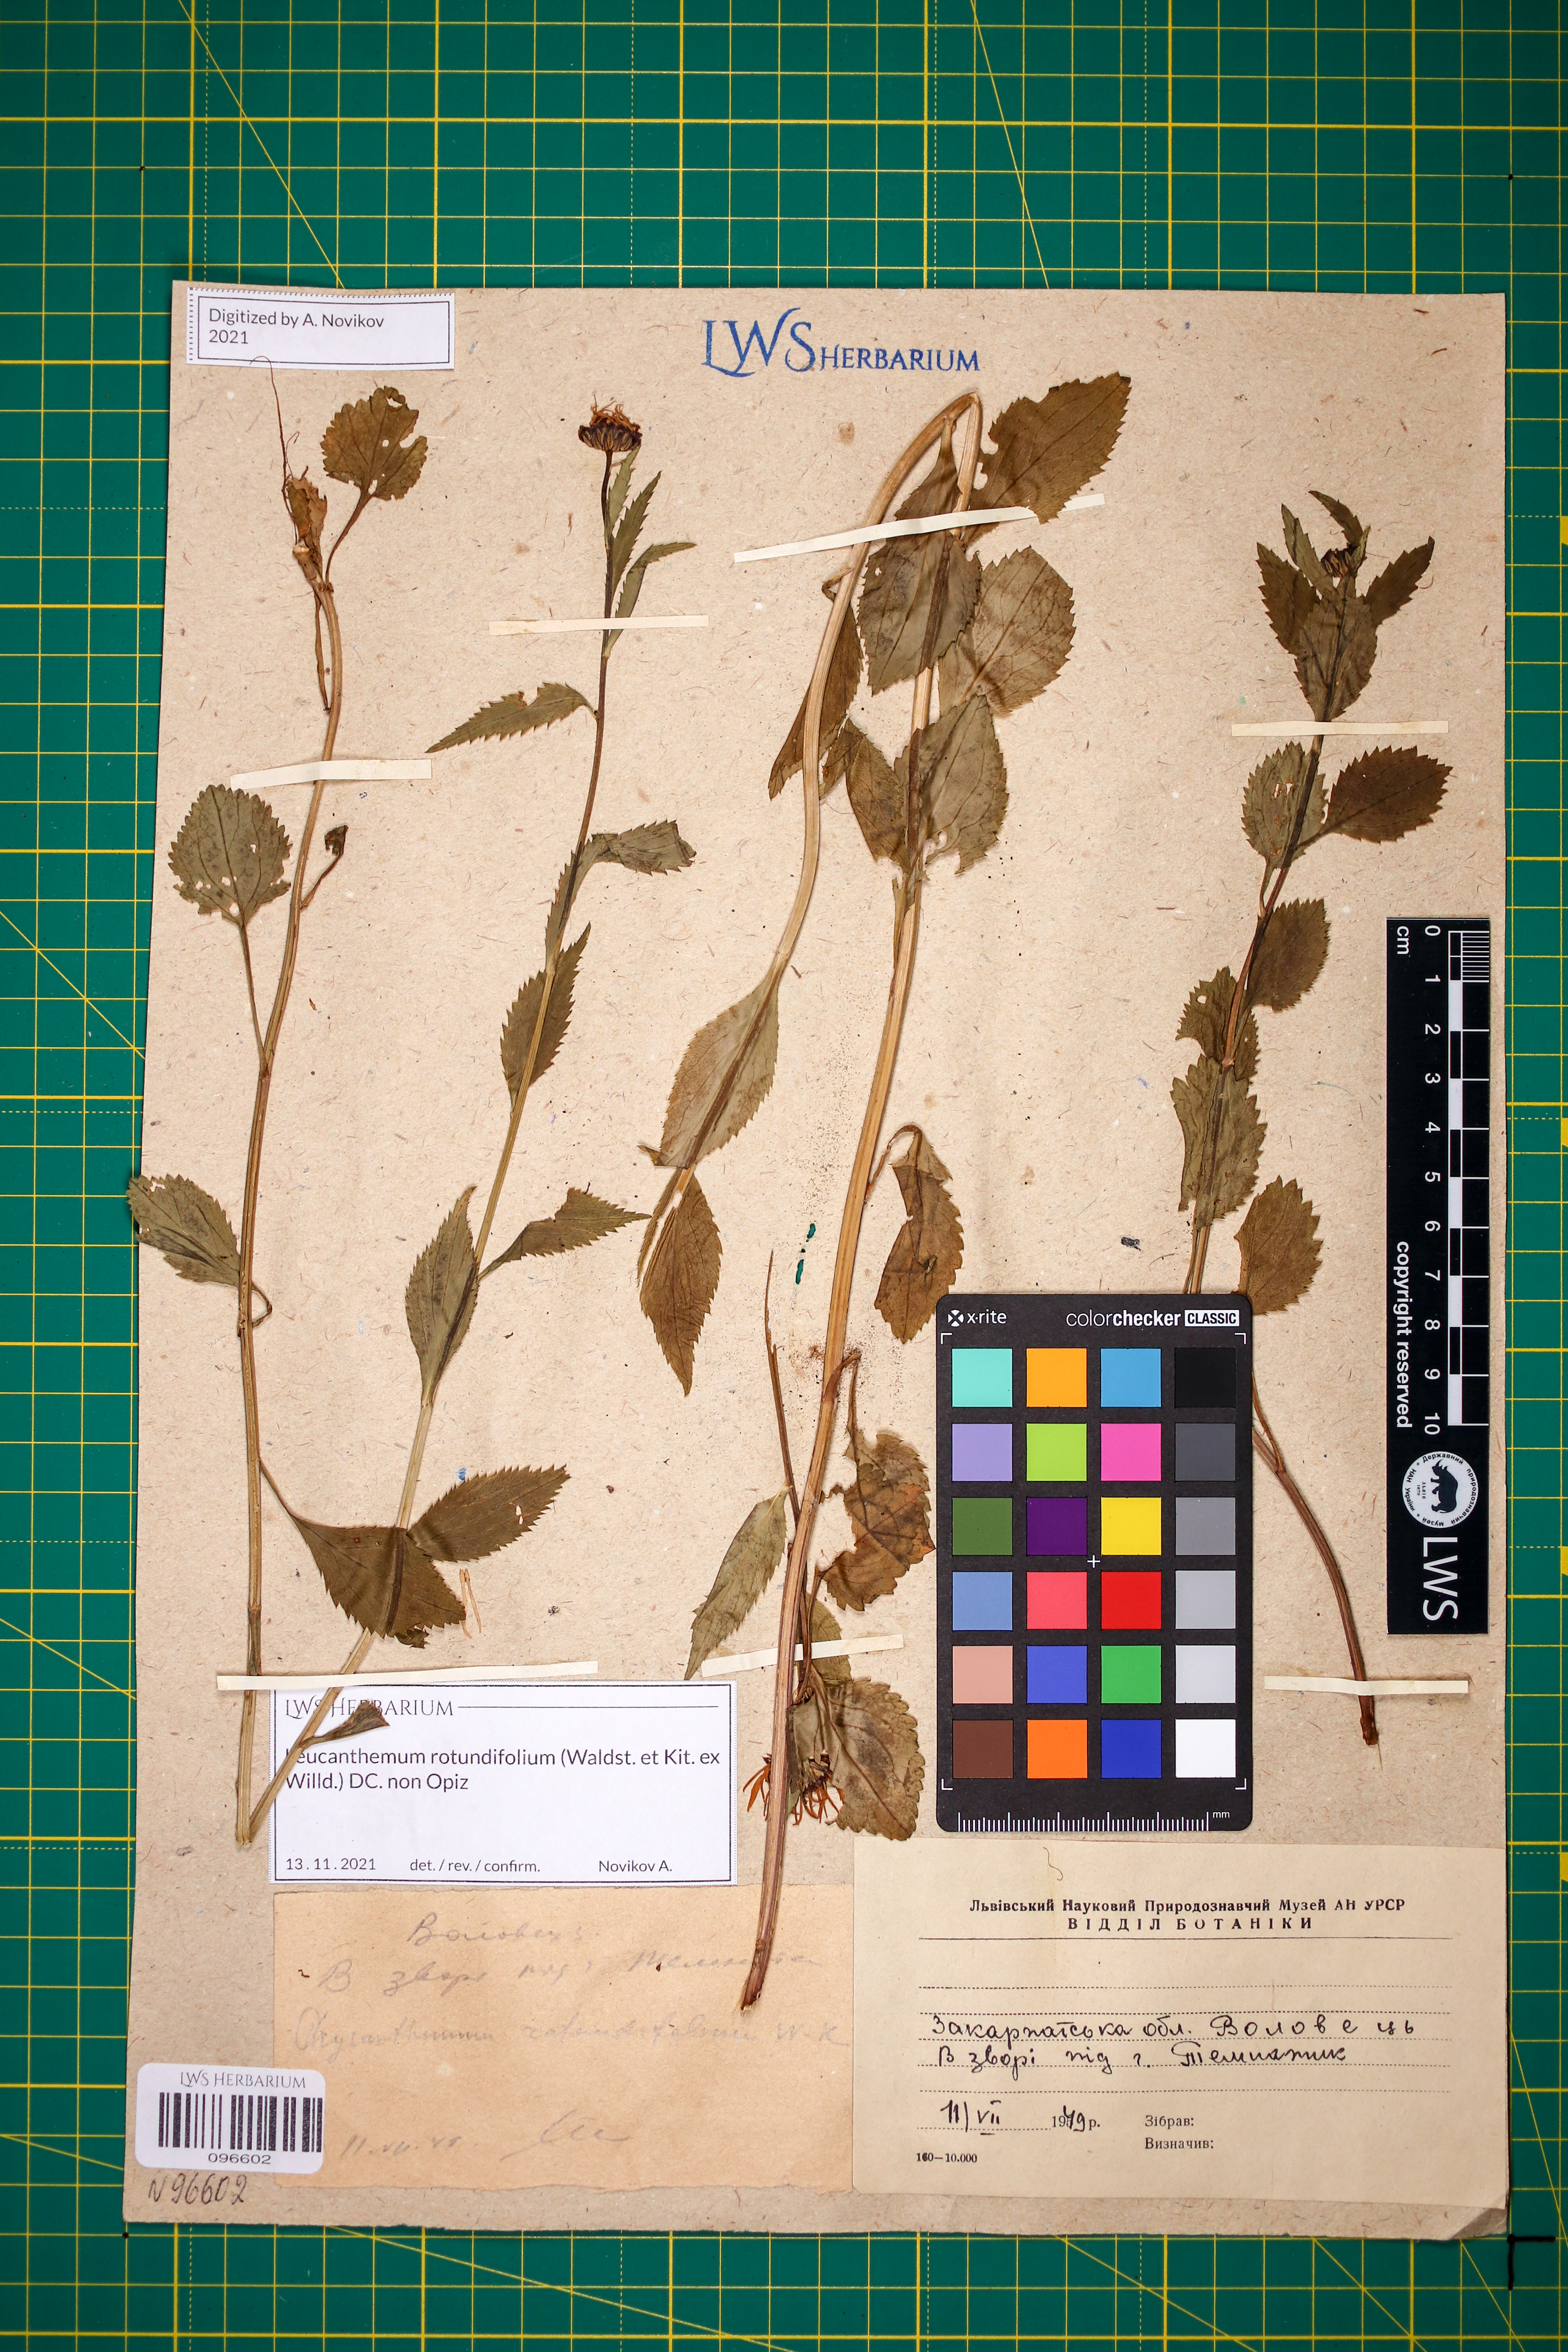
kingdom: Plantae
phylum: Tracheophyta
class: Magnoliopsida
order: Asterales
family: Asteraceae
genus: Leucanthemum
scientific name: Leucanthemum rotundifolium
